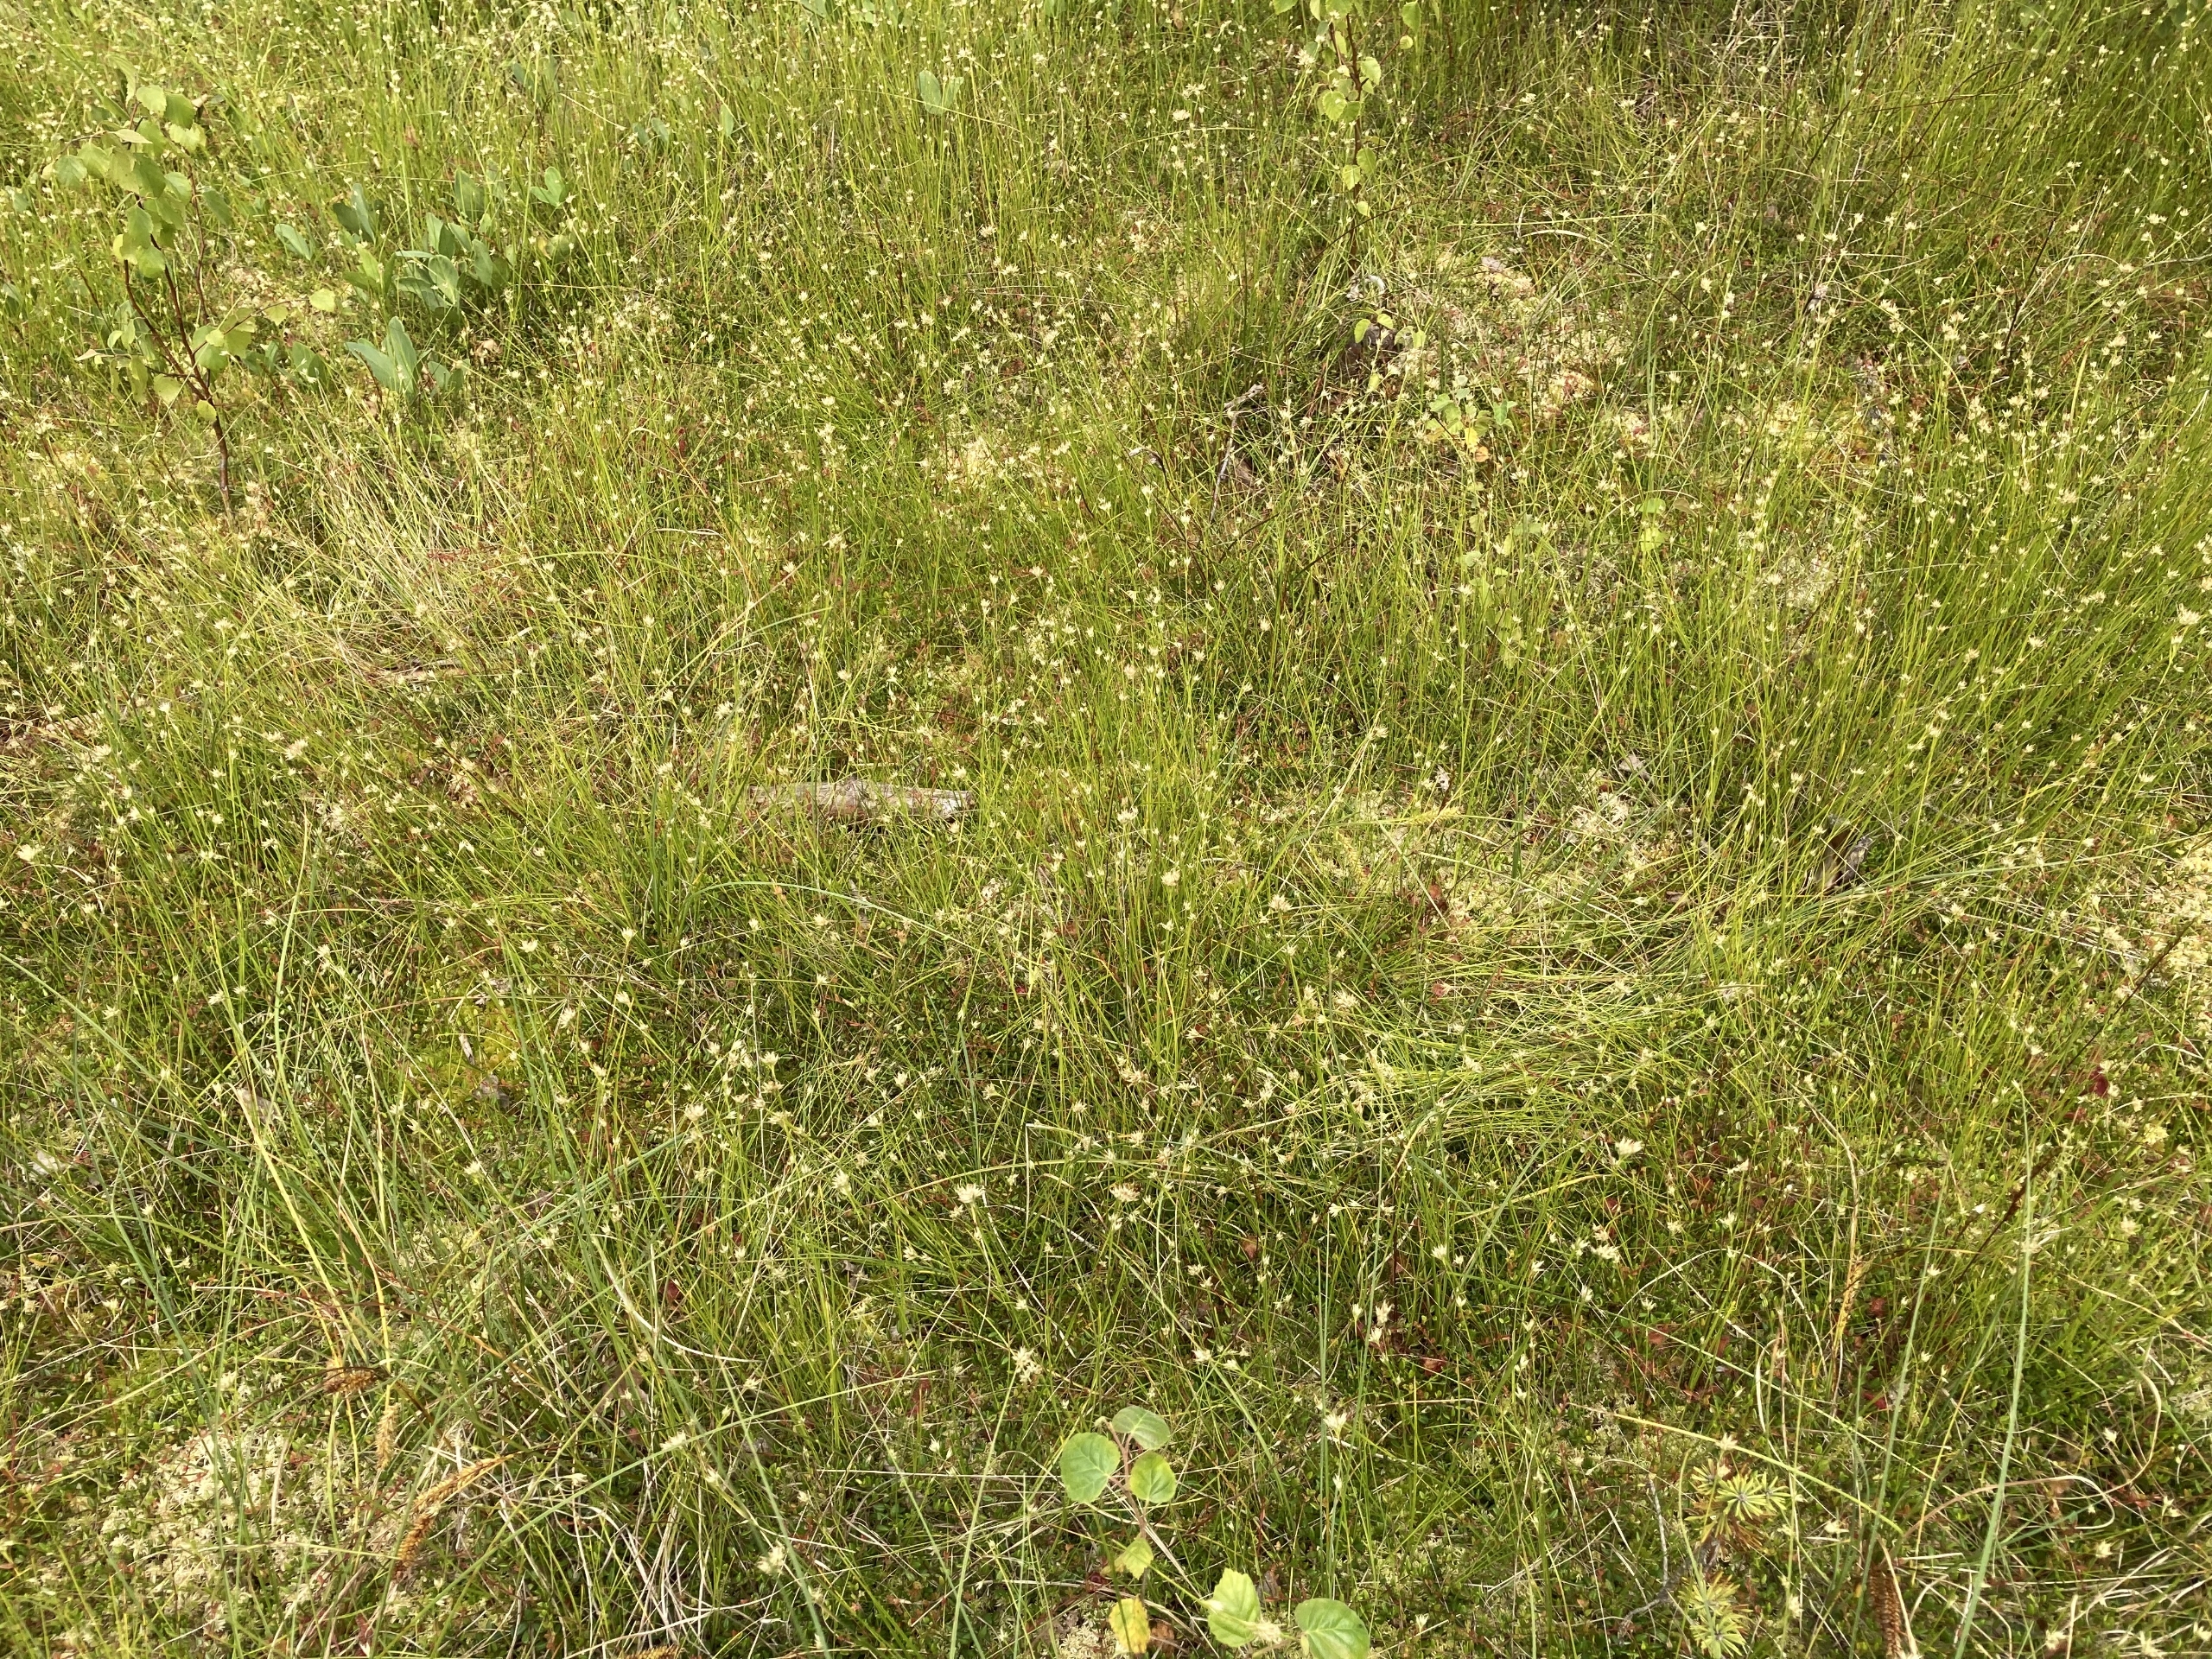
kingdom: Plantae
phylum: Tracheophyta
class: Liliopsida
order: Poales
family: Cyperaceae
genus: Rhynchospora
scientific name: Rhynchospora alba
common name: Hvid næbfrø
